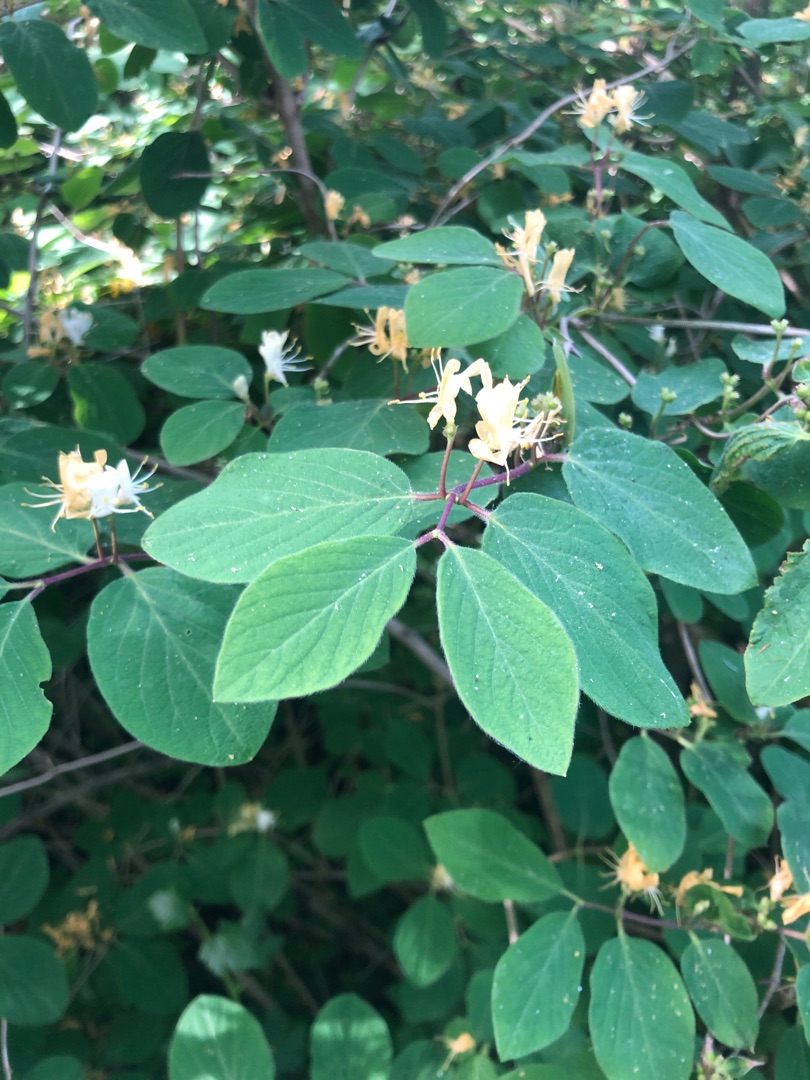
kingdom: Plantae
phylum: Tracheophyta
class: Magnoliopsida
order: Dipsacales
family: Caprifoliaceae
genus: Lonicera
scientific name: Lonicera xylosteum
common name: Dunet gedeblad
